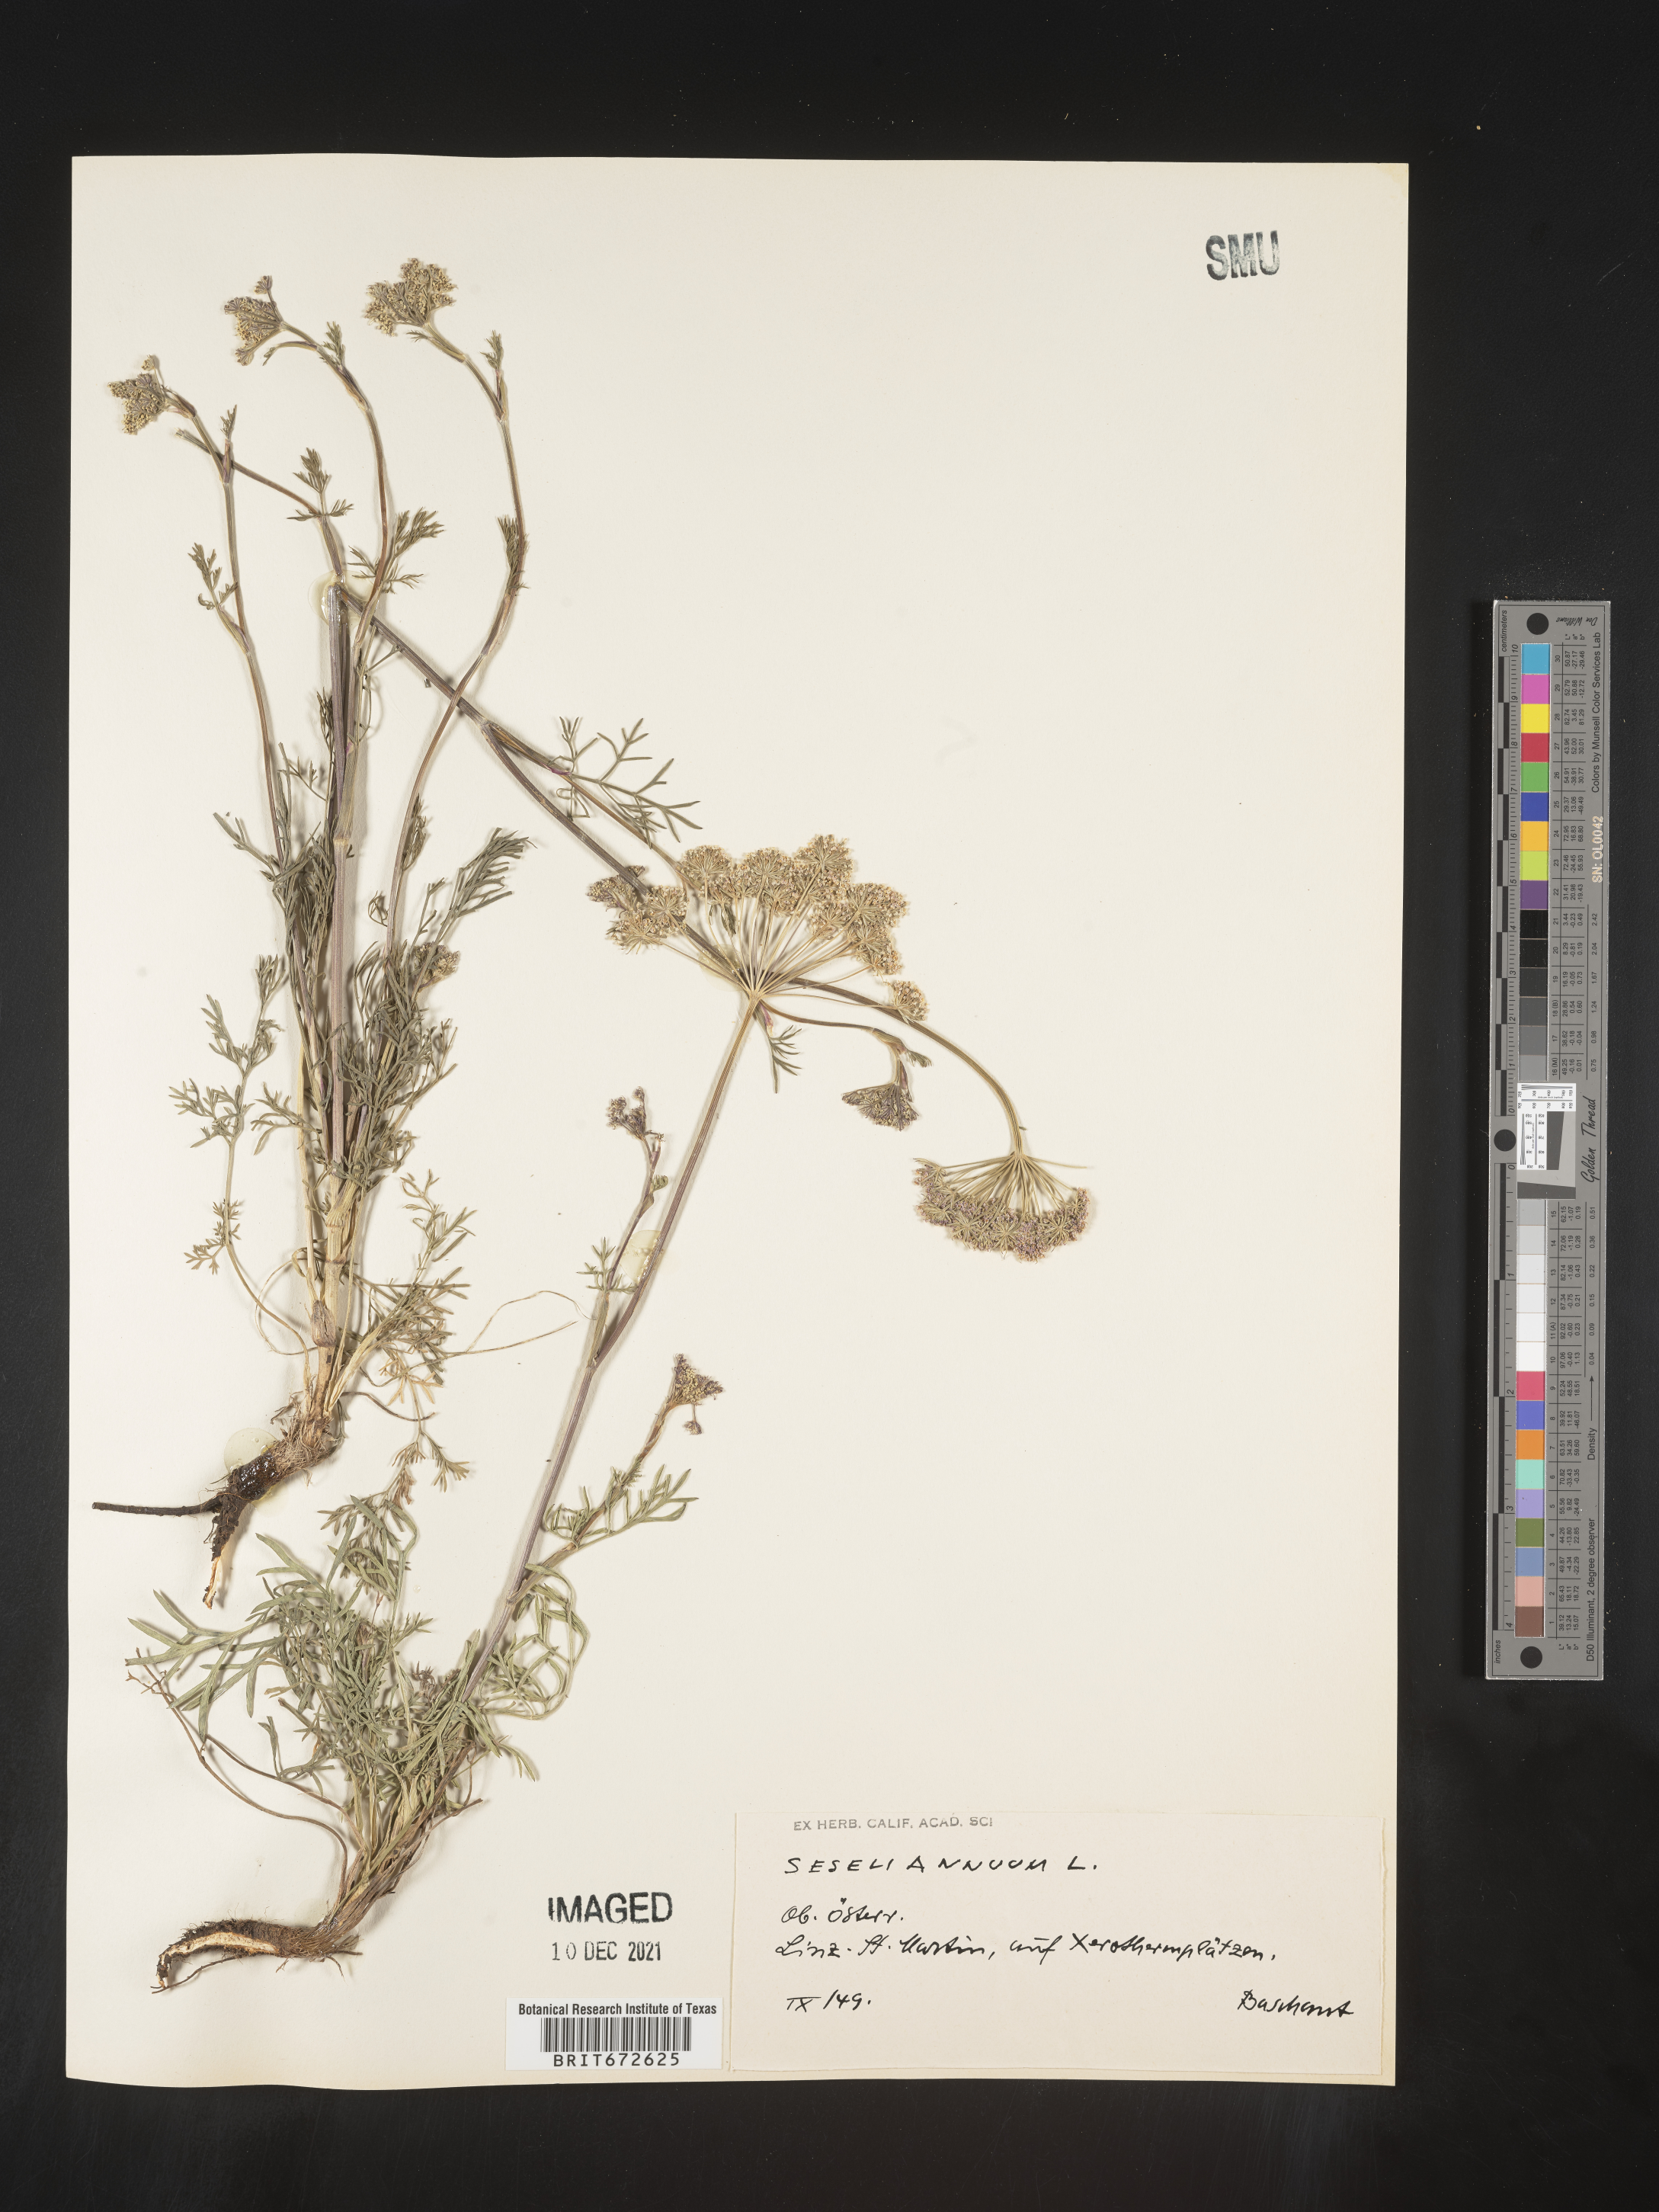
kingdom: Plantae
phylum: Tracheophyta
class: Magnoliopsida
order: Apiales
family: Apiaceae
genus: Seseli
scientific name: Seseli
